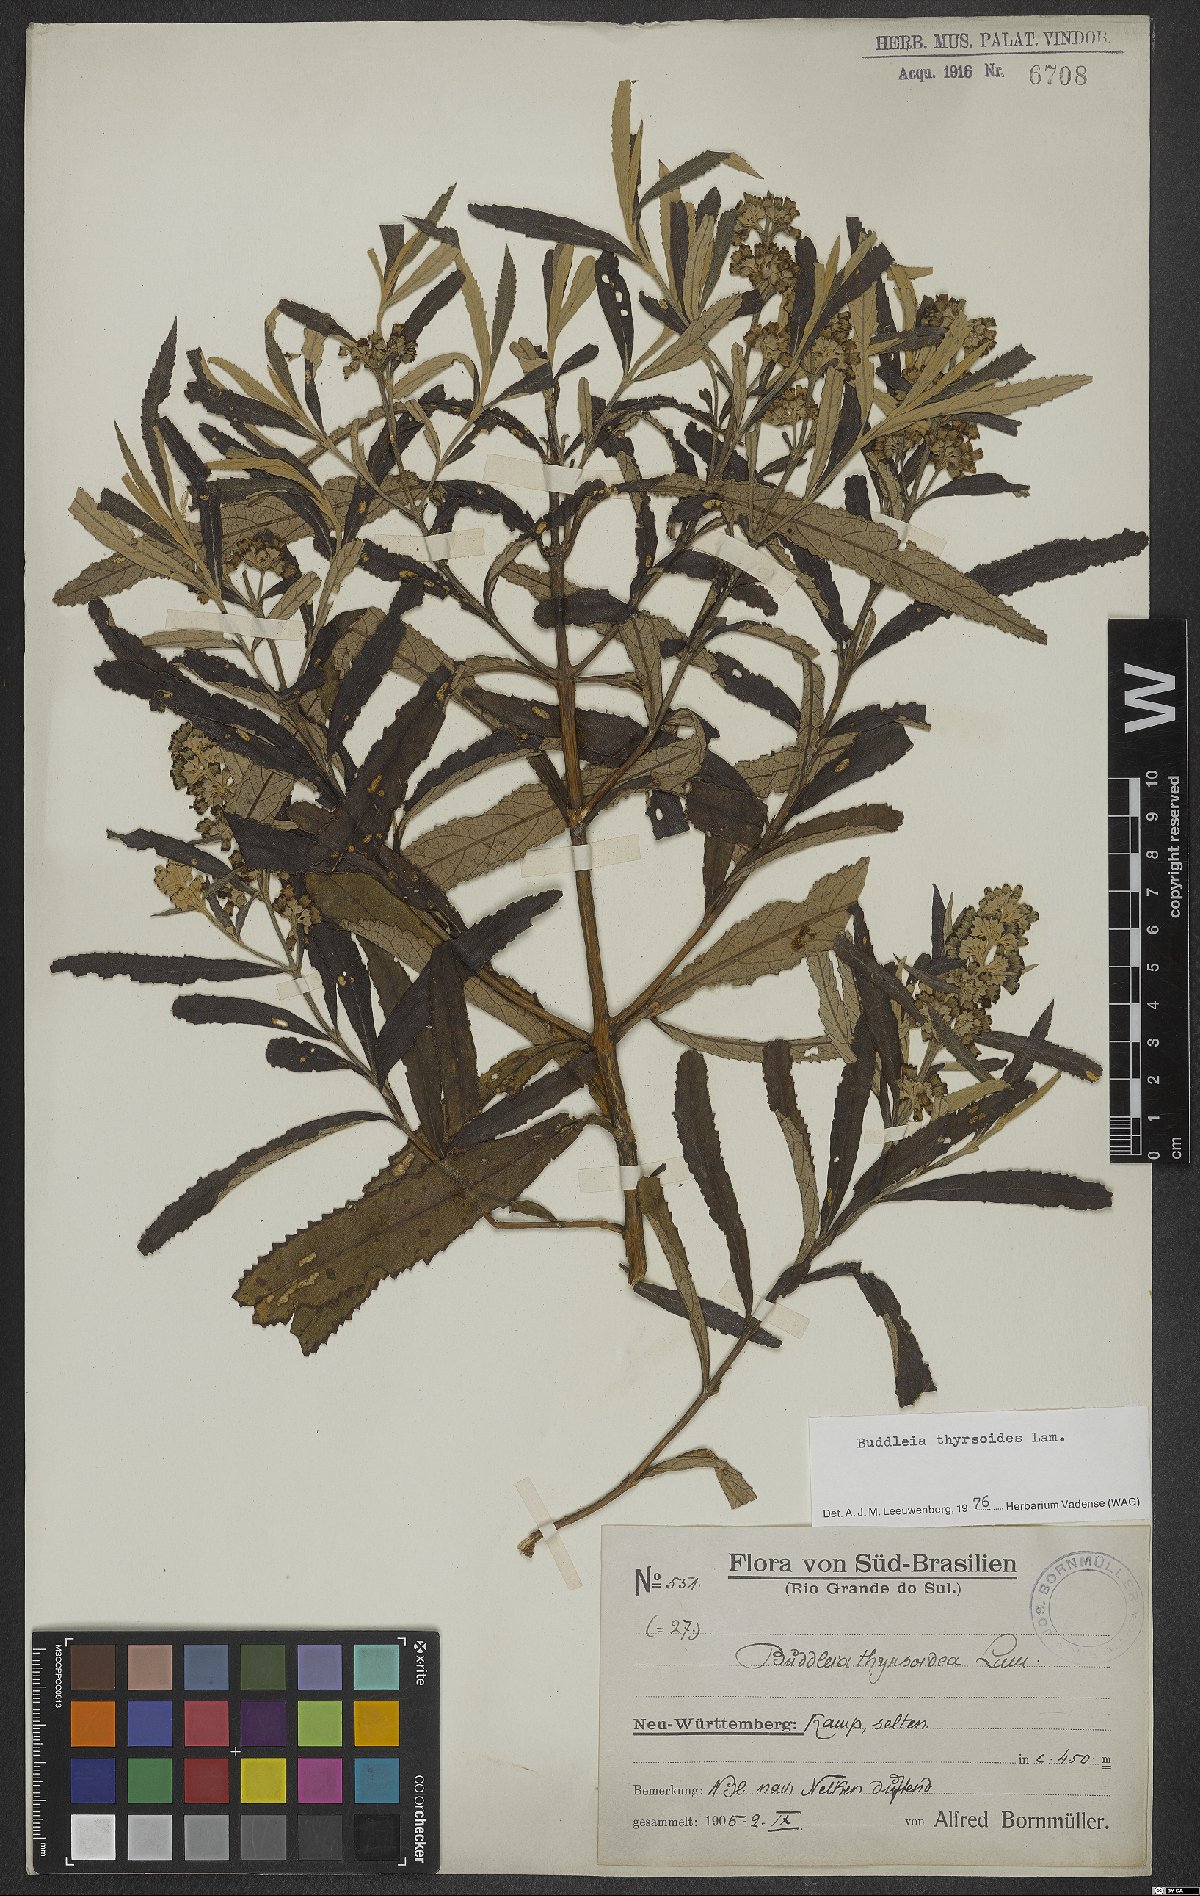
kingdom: Plantae
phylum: Tracheophyta
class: Magnoliopsida
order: Lamiales
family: Scrophulariaceae
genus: Buddleja
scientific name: Buddleja thyrsoides
